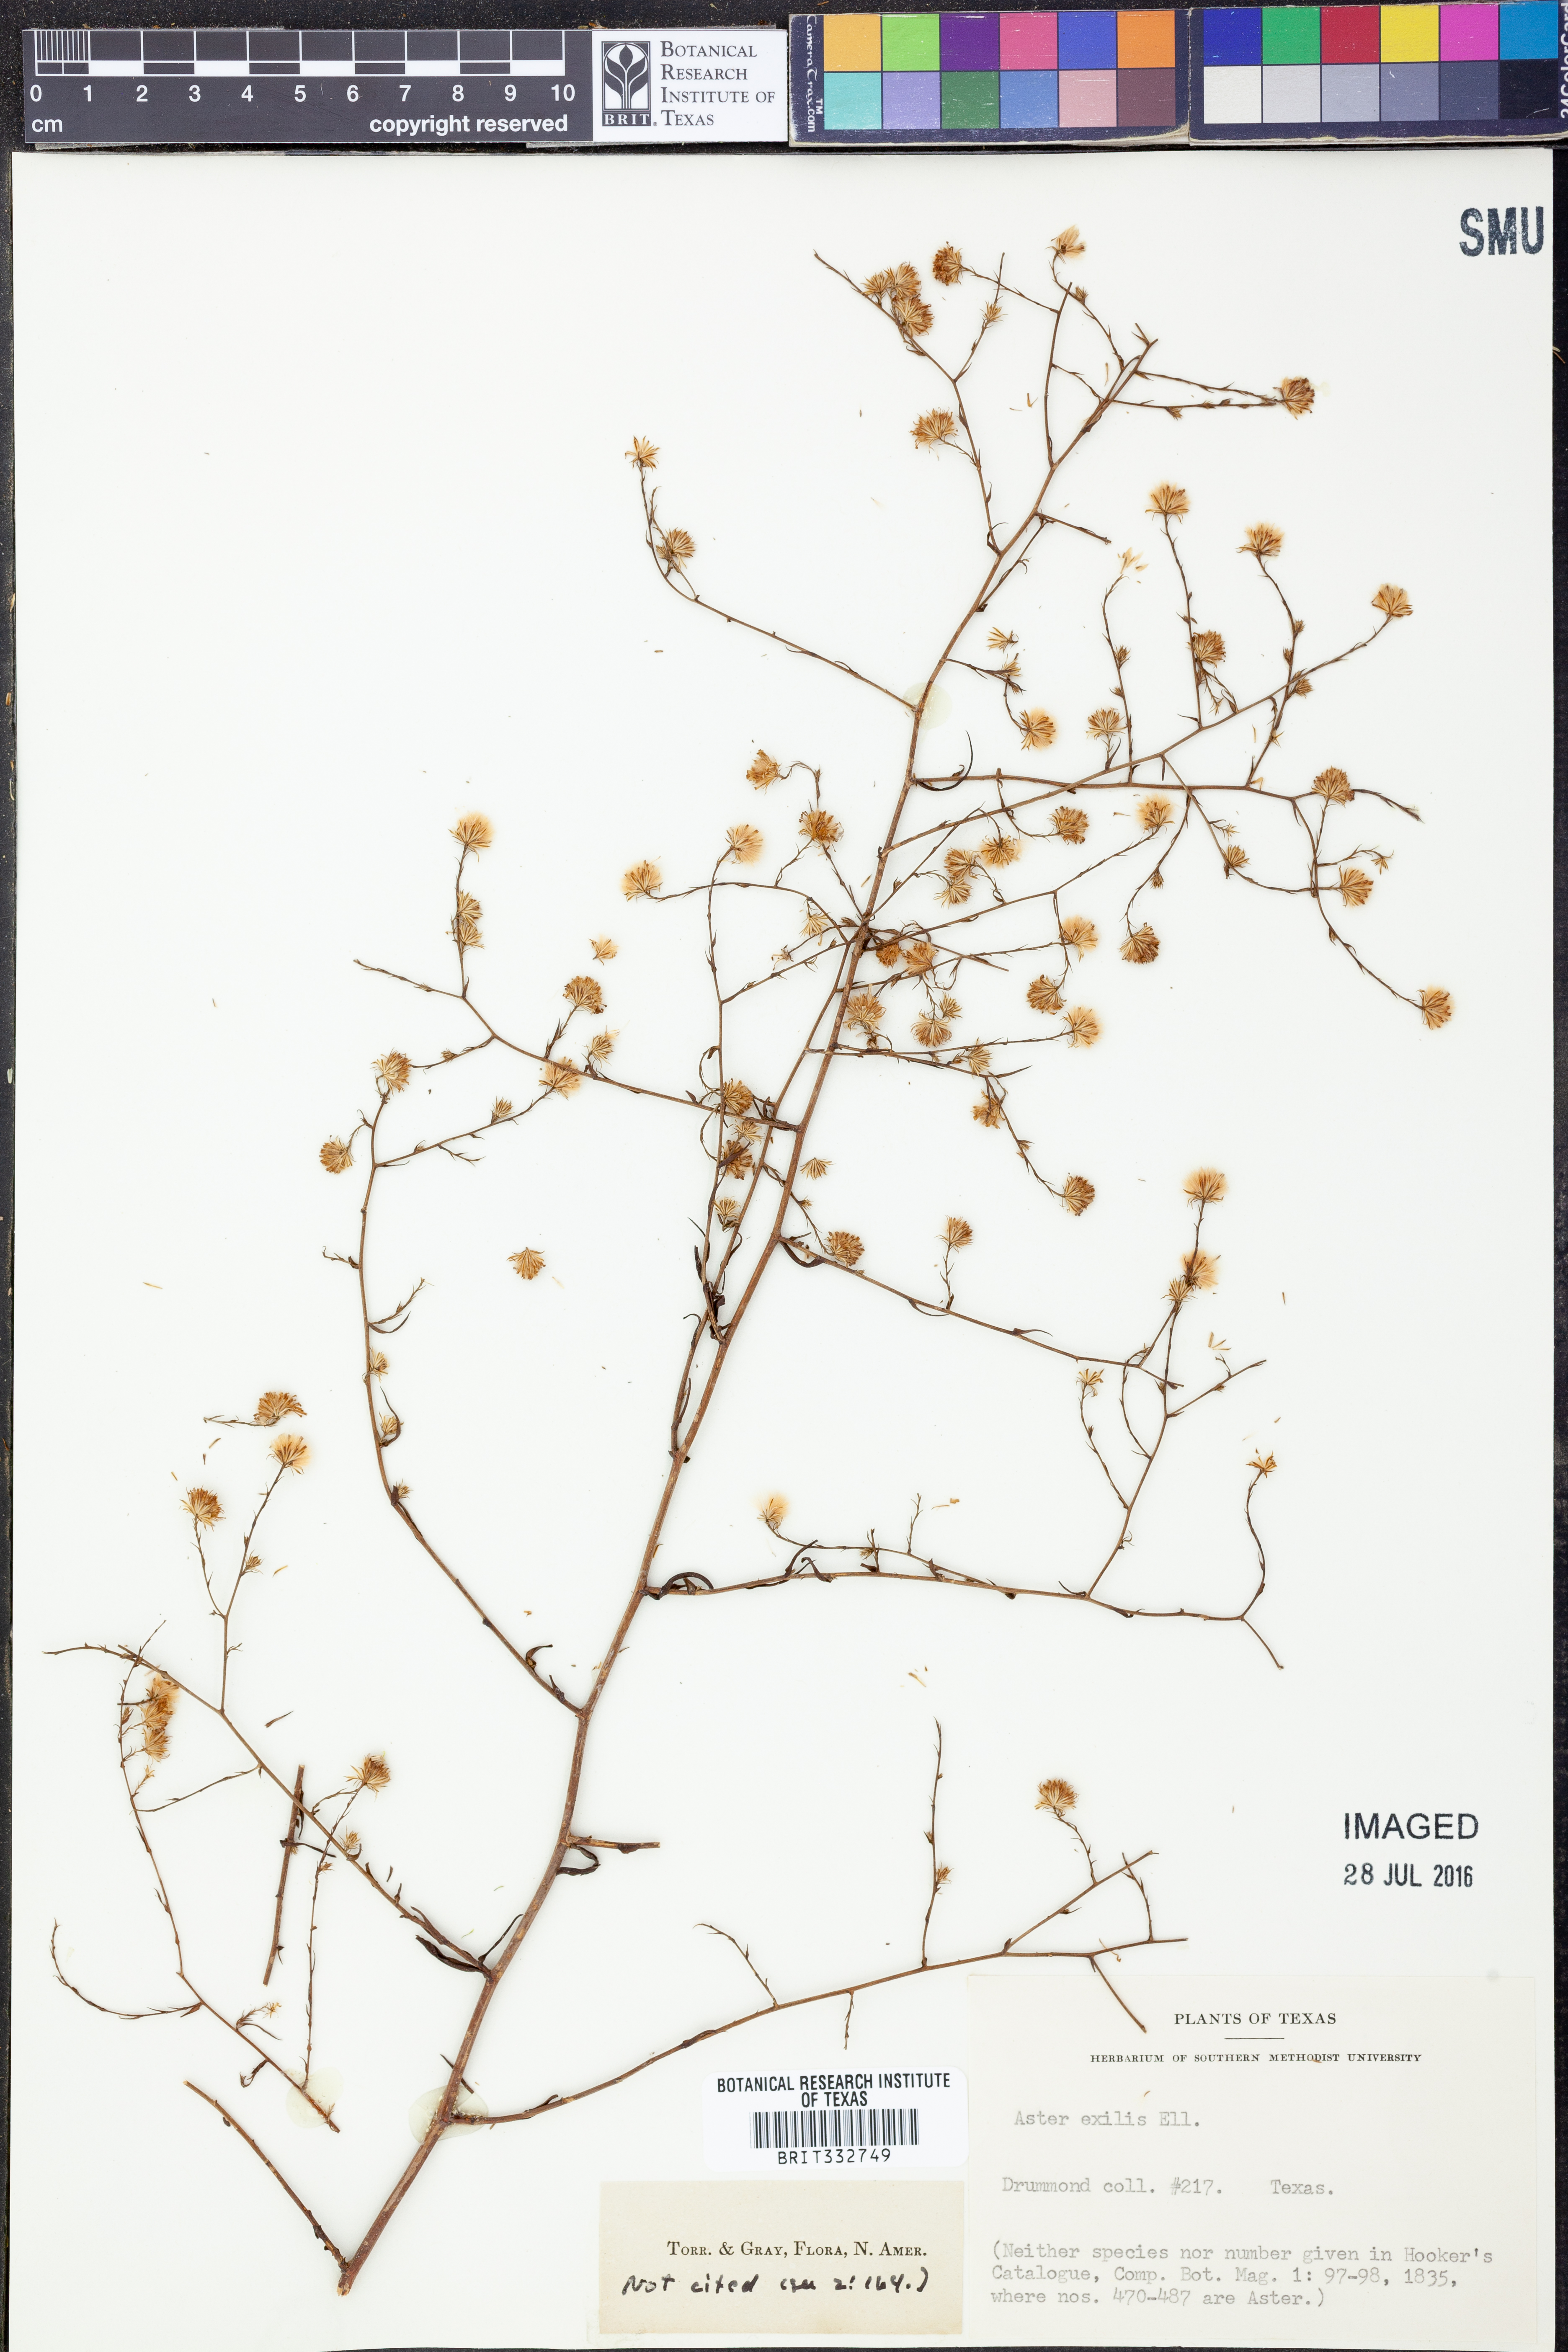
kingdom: Plantae
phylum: Tracheophyta
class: Magnoliopsida
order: Asterales
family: Asteraceae
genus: Symphyotrichum
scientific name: Symphyotrichum expansum
